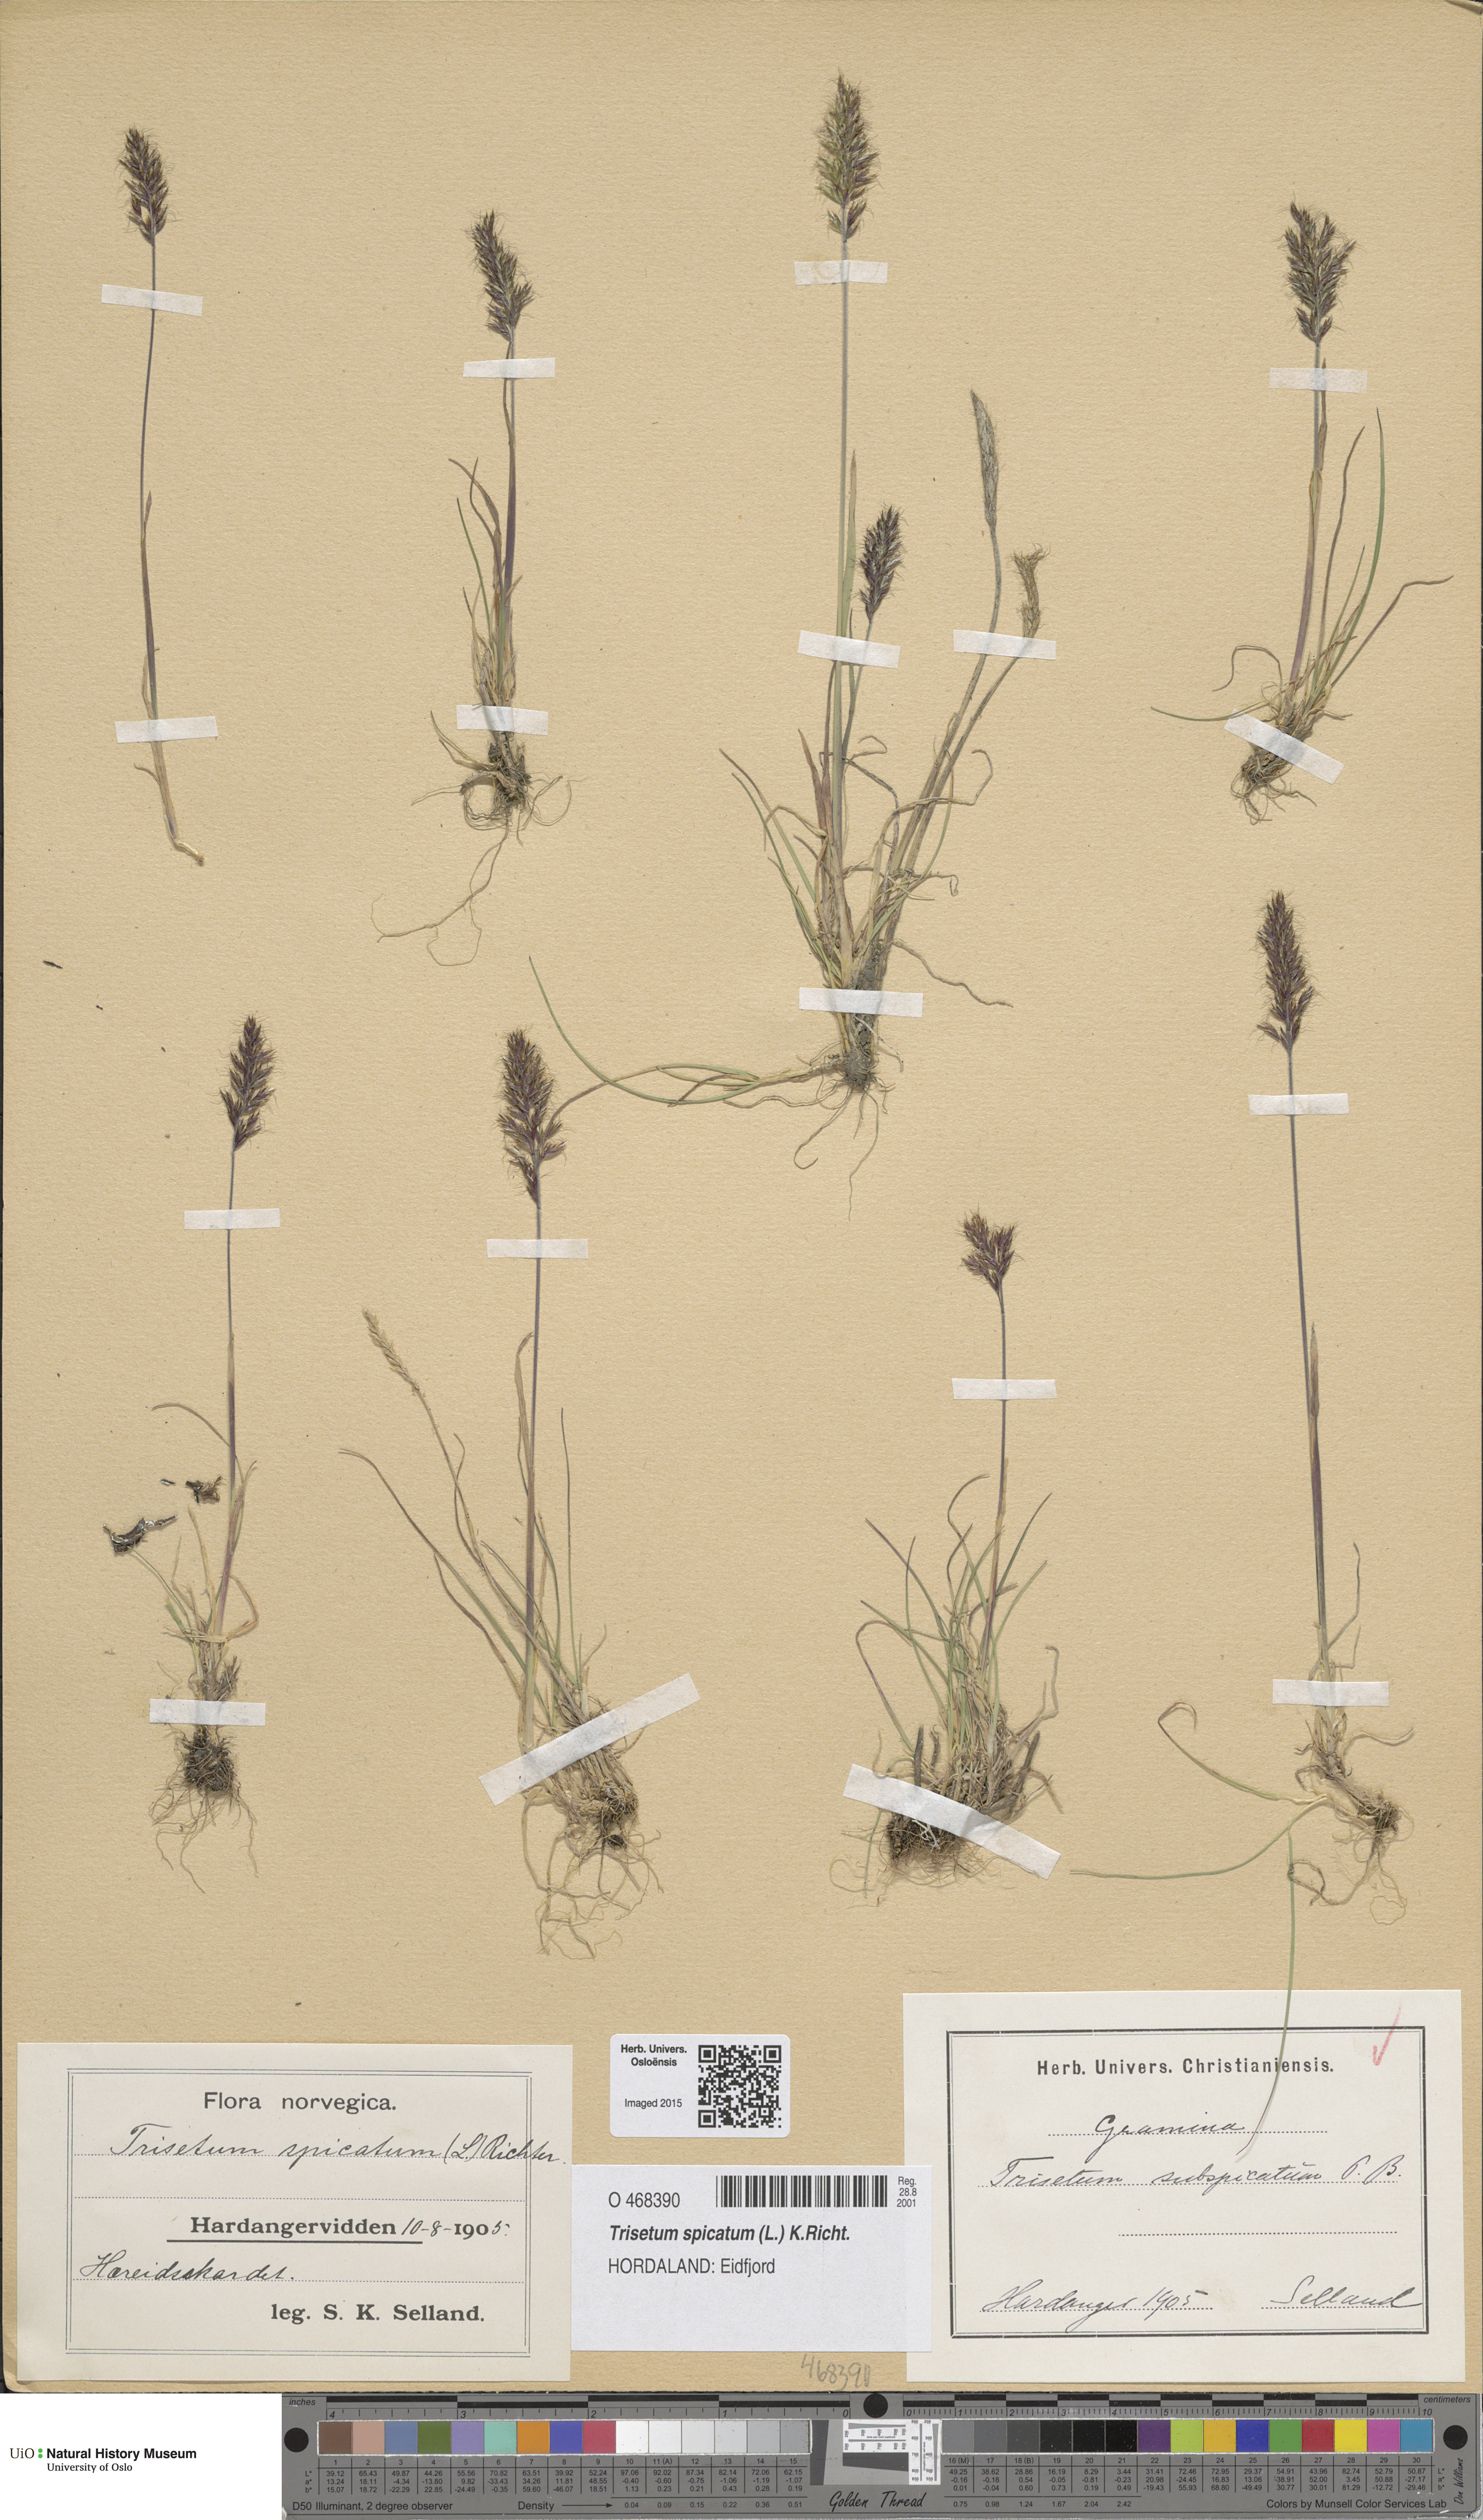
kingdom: Plantae
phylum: Tracheophyta
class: Liliopsida
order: Poales
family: Poaceae
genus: Koeleria
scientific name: Koeleria spicata
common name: Mountain trisetum
